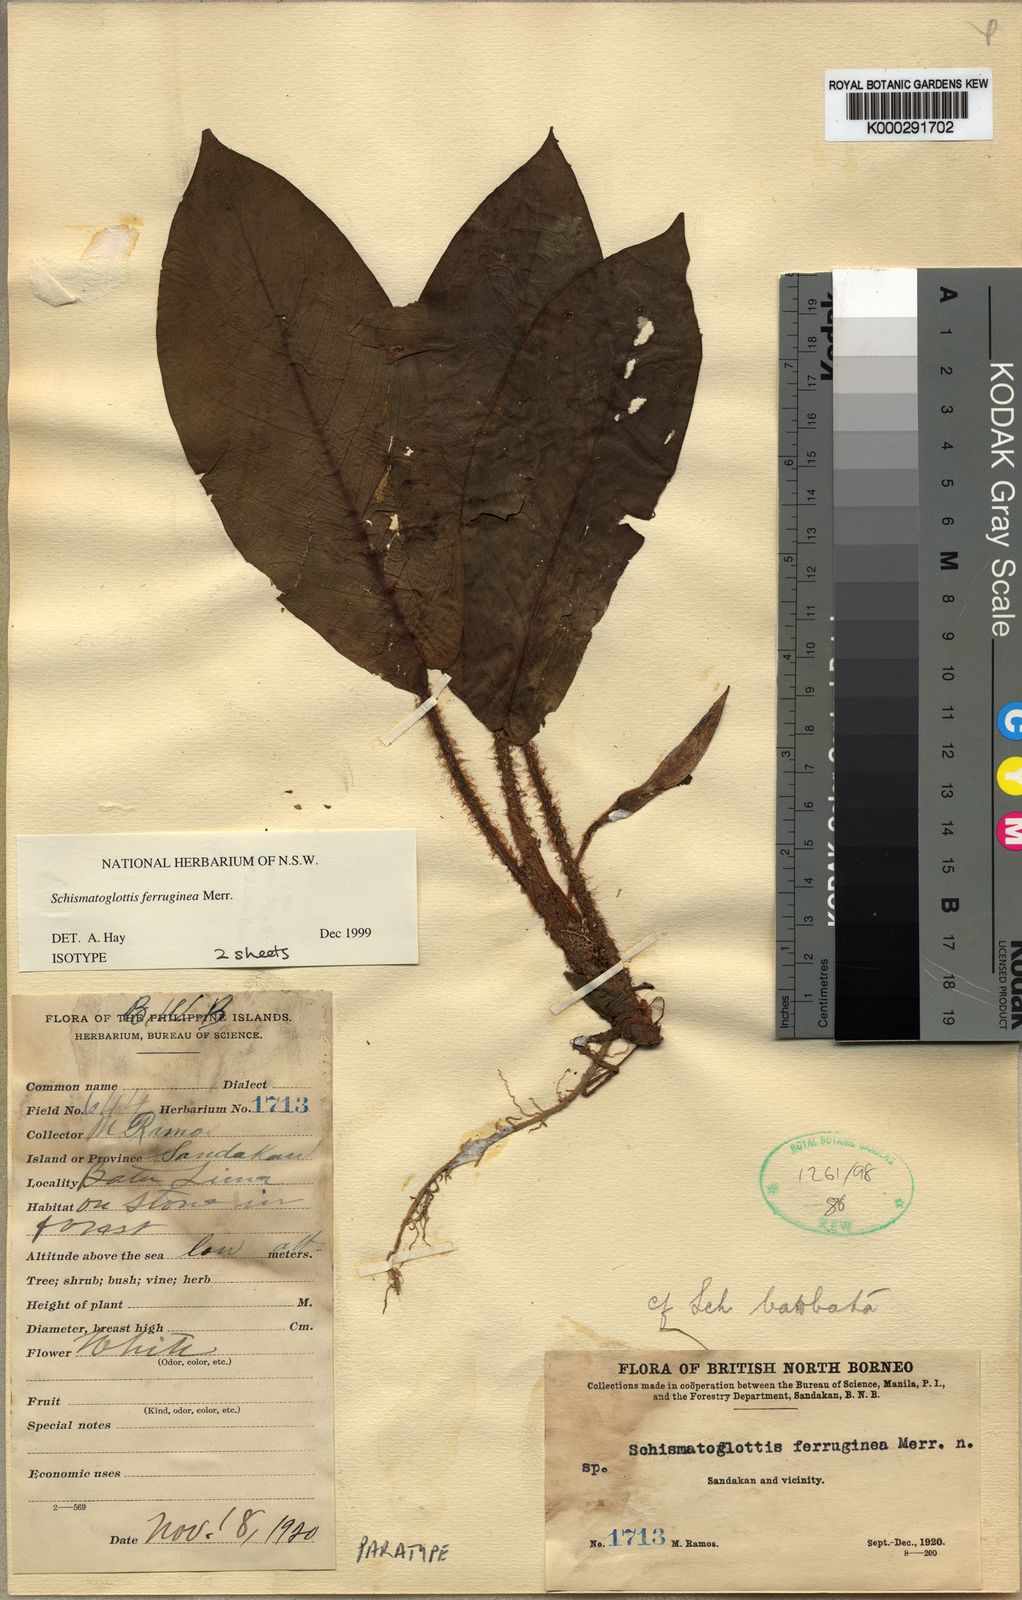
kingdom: Plantae
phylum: Tracheophyta
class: Liliopsida
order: Alismatales
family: Araceae
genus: Schismatoglottis
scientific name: Schismatoglottis ferruginea
